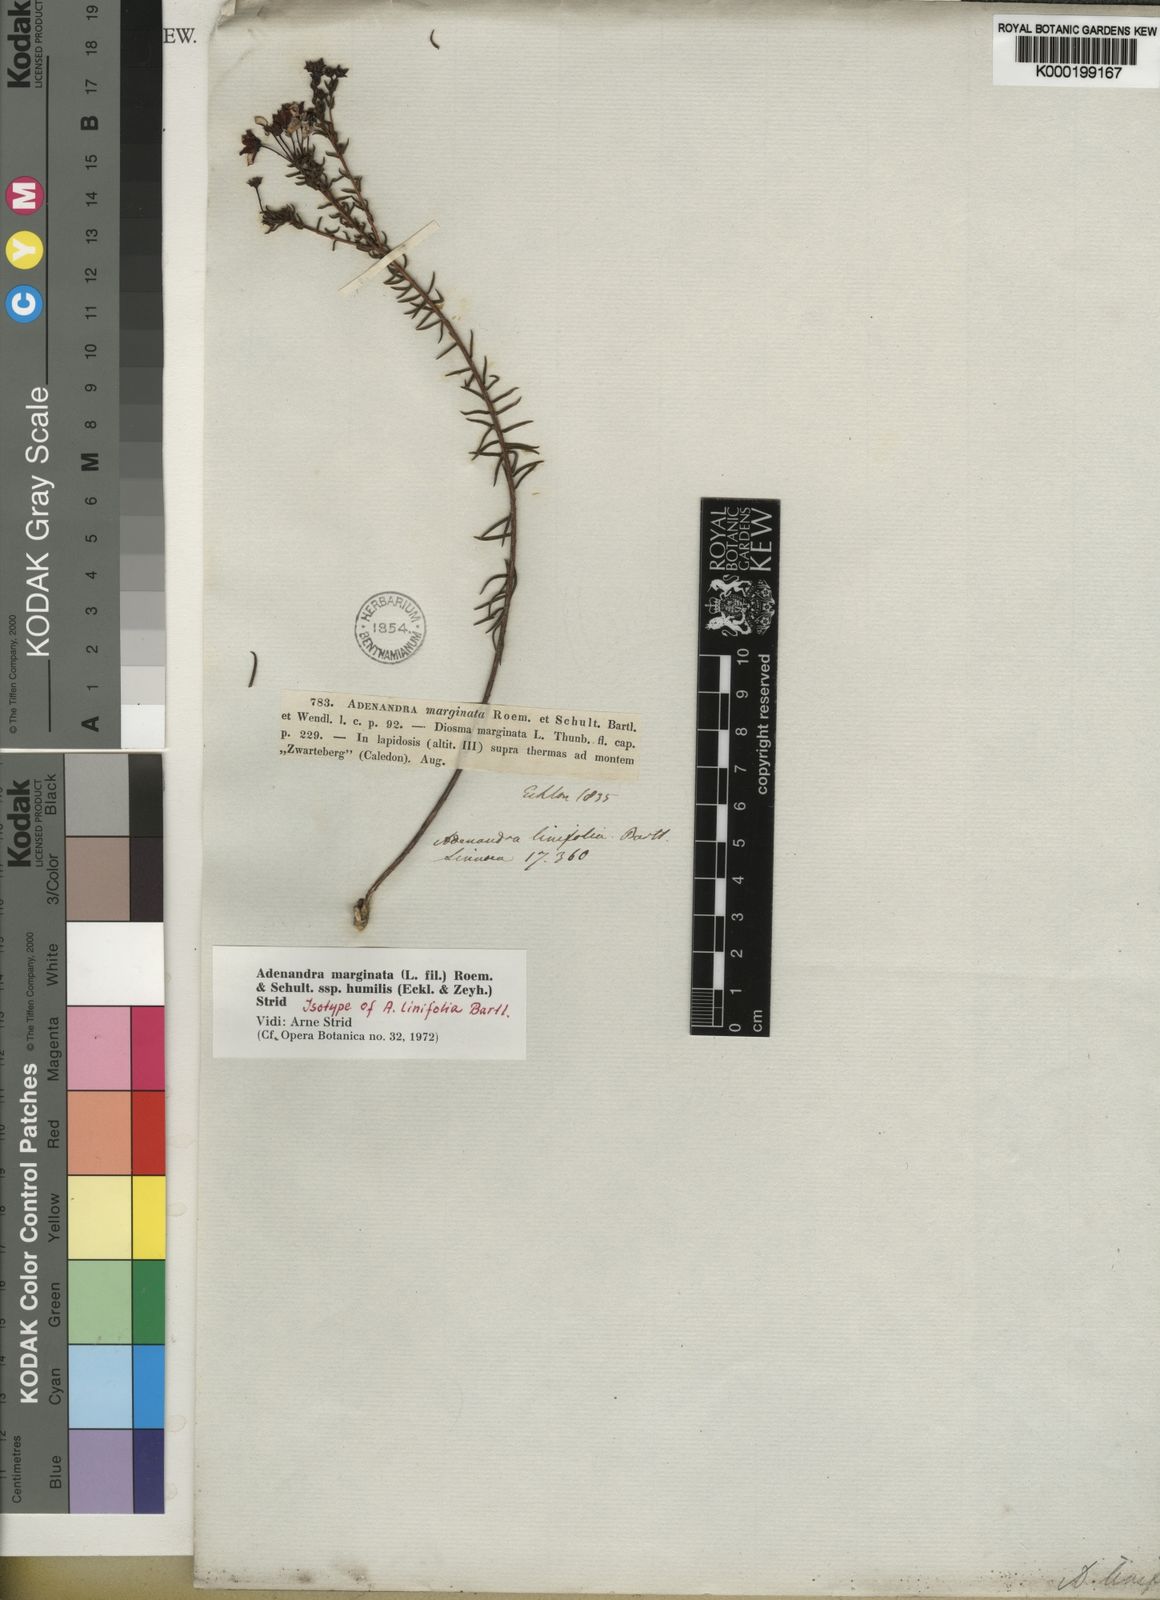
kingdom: Plantae
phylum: Tracheophyta
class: Magnoliopsida
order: Sapindales
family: Rutaceae
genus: Adenandra
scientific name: Adenandra marginata
